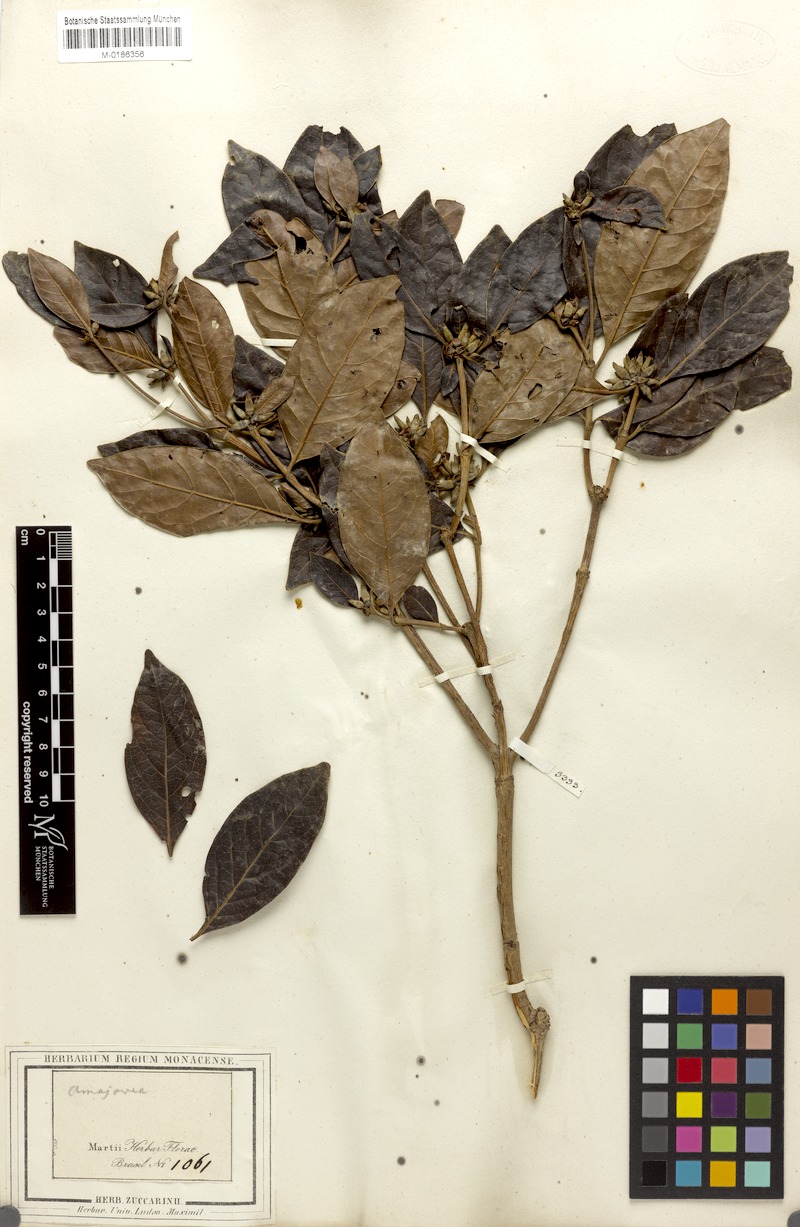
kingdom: Plantae
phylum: Tracheophyta
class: Magnoliopsida
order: Gentianales
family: Rubiaceae
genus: Cordiera
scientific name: Cordiera elliptica
